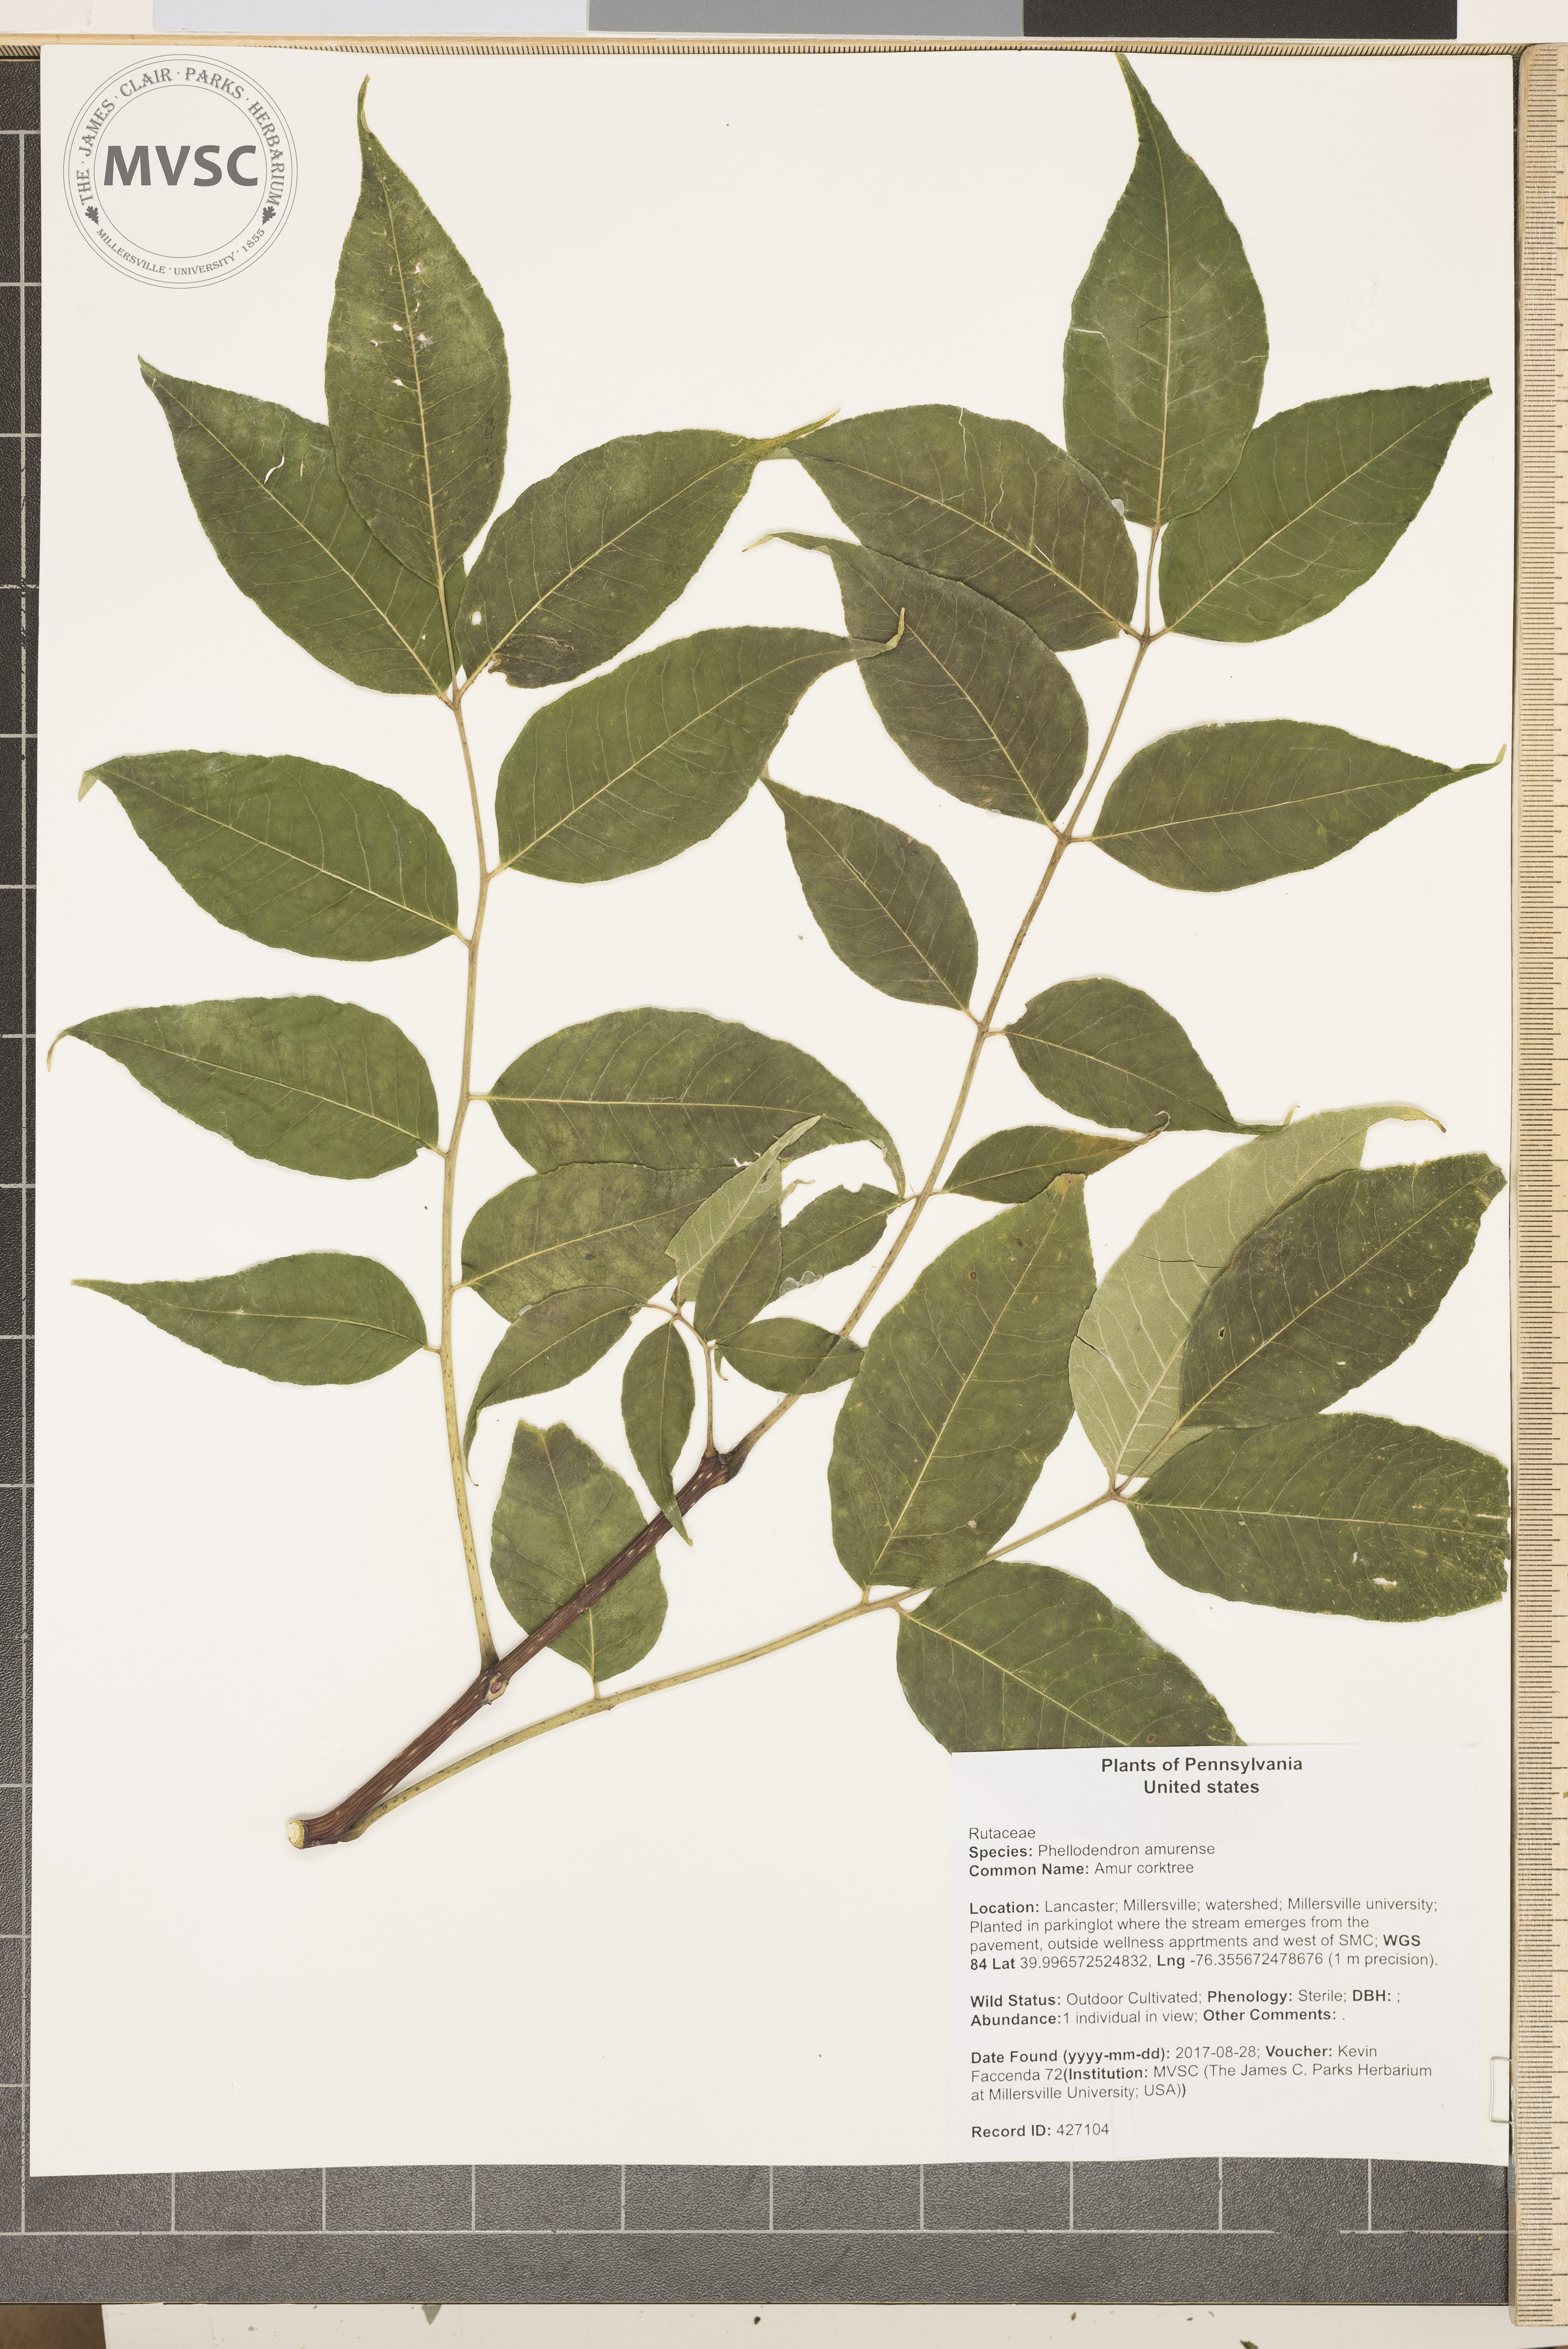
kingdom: Plantae
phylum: Tracheophyta
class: Magnoliopsida
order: Sapindales
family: Rutaceae
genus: Phellodendron
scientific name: Phellodendron amurense
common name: Amur corktree
